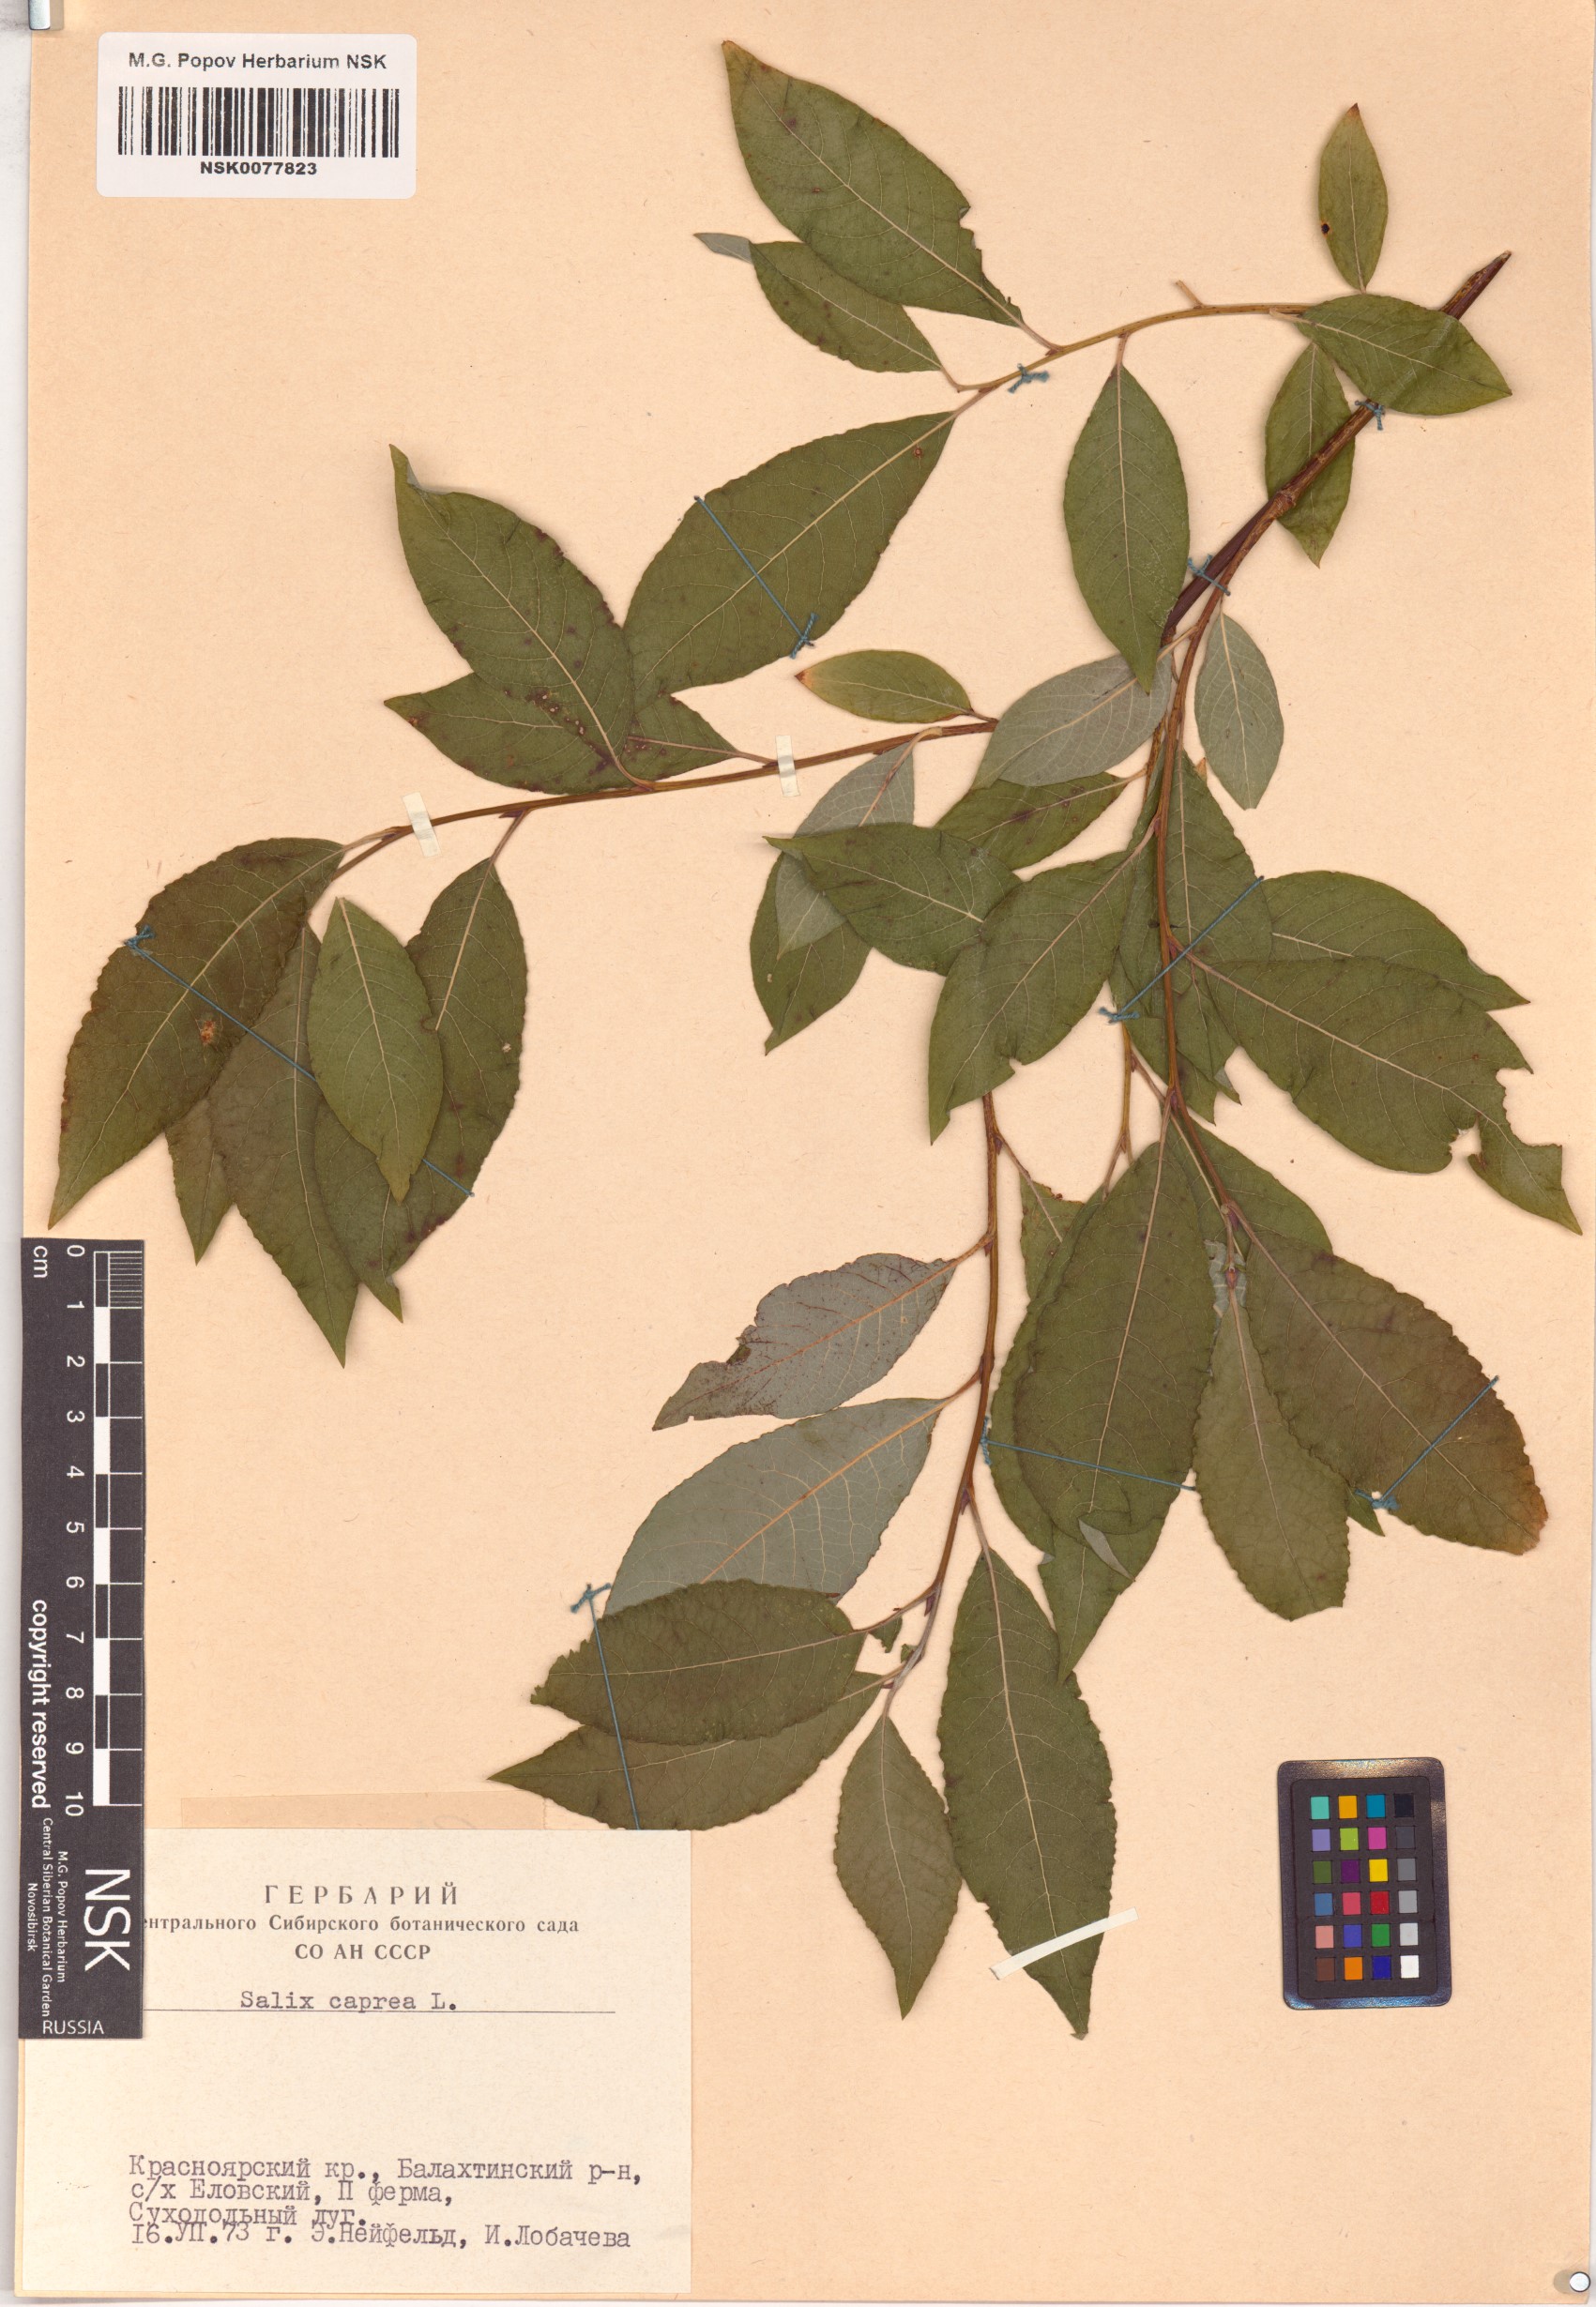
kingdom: Plantae
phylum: Tracheophyta
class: Magnoliopsida
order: Malpighiales
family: Salicaceae
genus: Salix
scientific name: Salix caprea
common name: Goat willow
